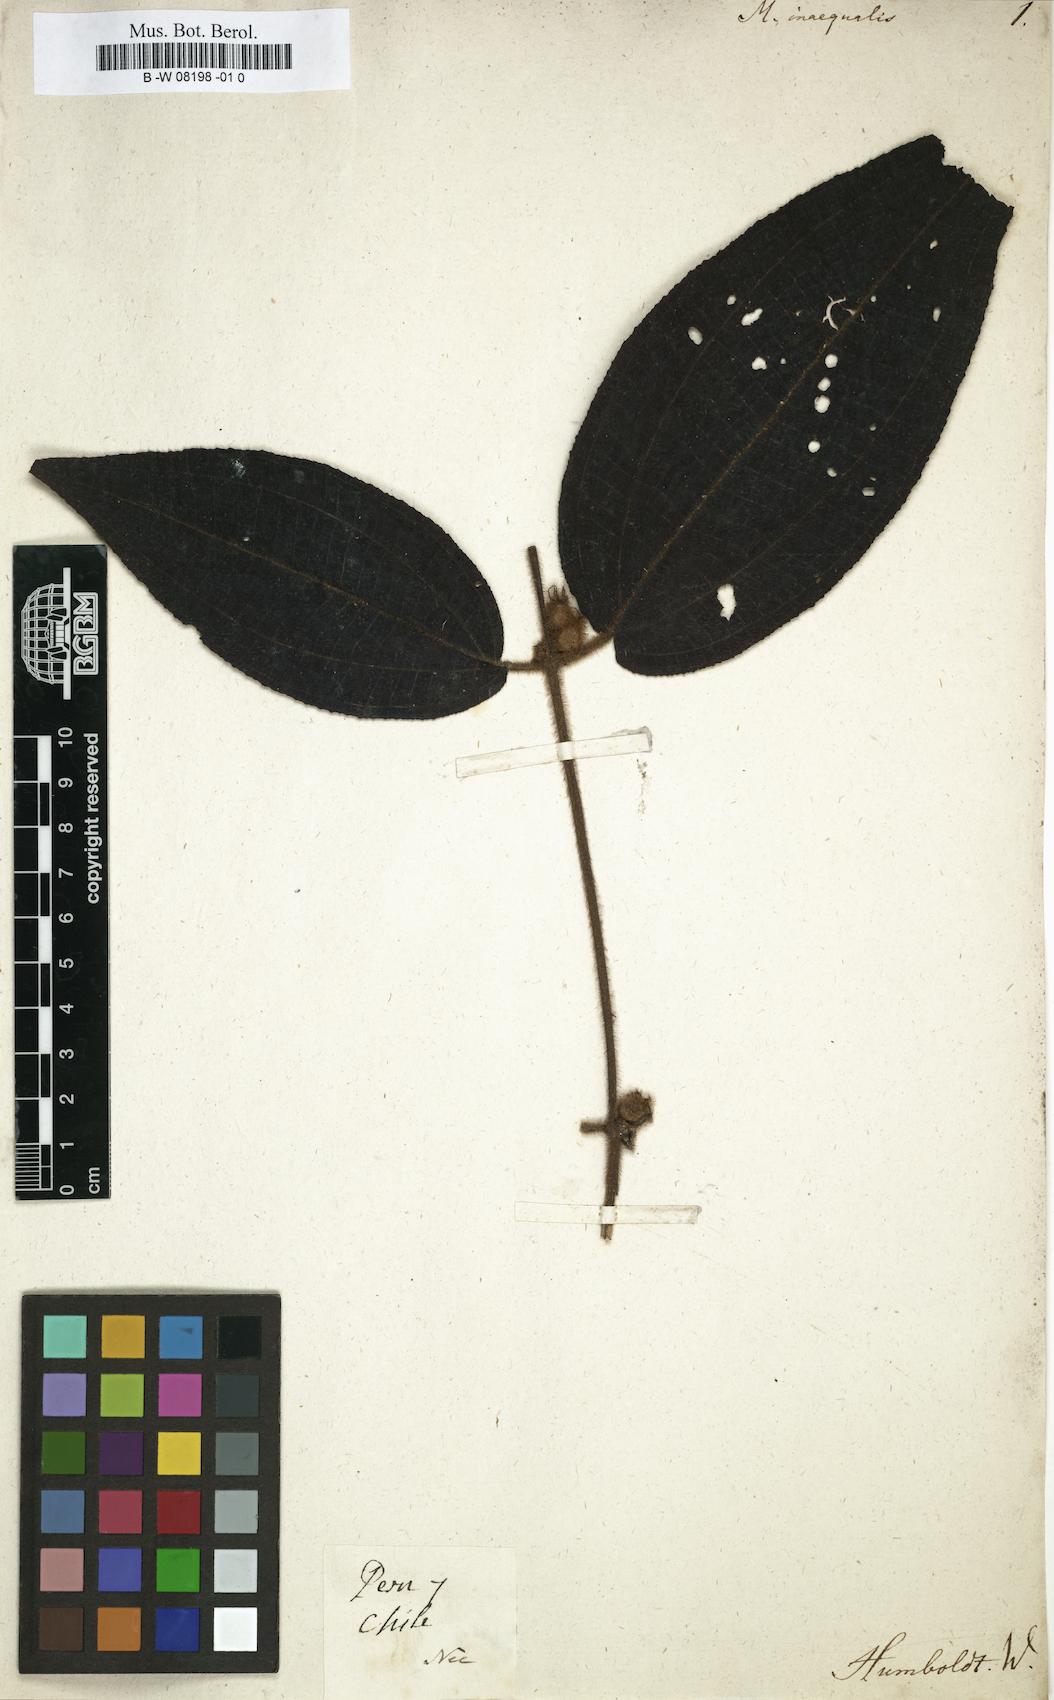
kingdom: Plantae
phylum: Tracheophyta
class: Magnoliopsida
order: Myrtales
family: Melastomataceae
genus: Melastoma
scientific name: Melastoma
